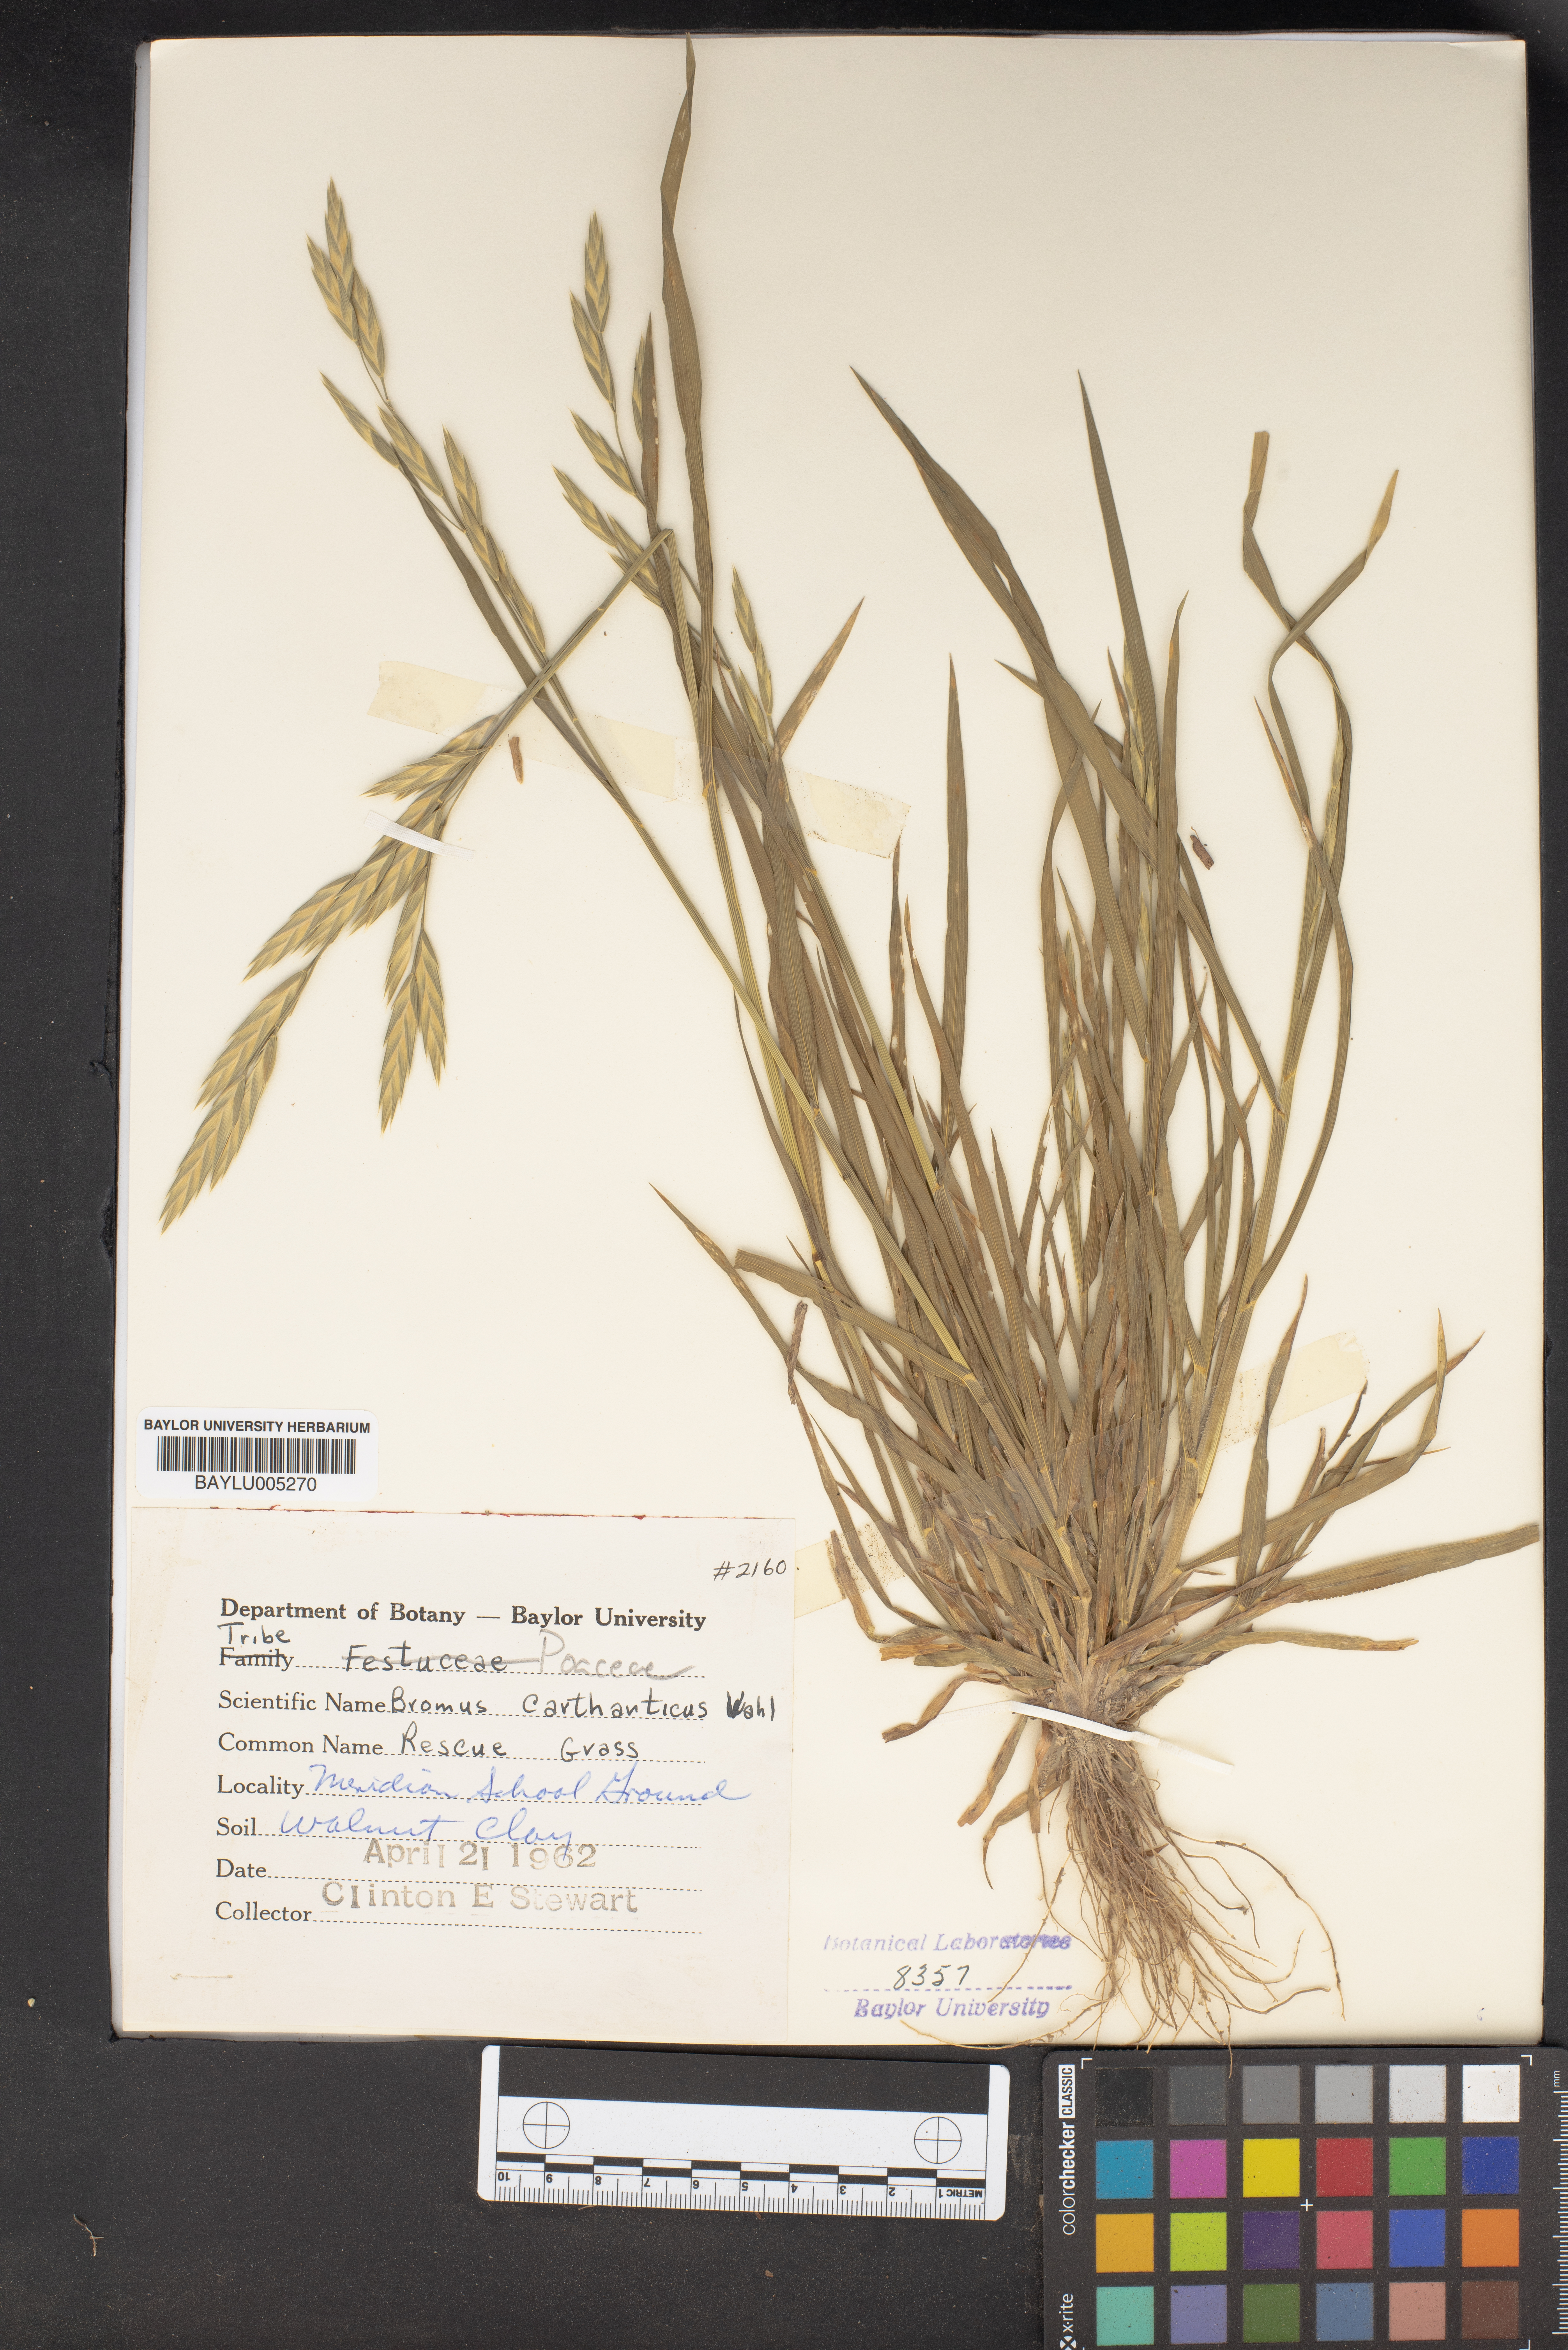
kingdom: Plantae
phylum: Tracheophyta
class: Liliopsida
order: Poales
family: Poaceae
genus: Bromus
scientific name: Bromus carinatus
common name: Mountain brome
